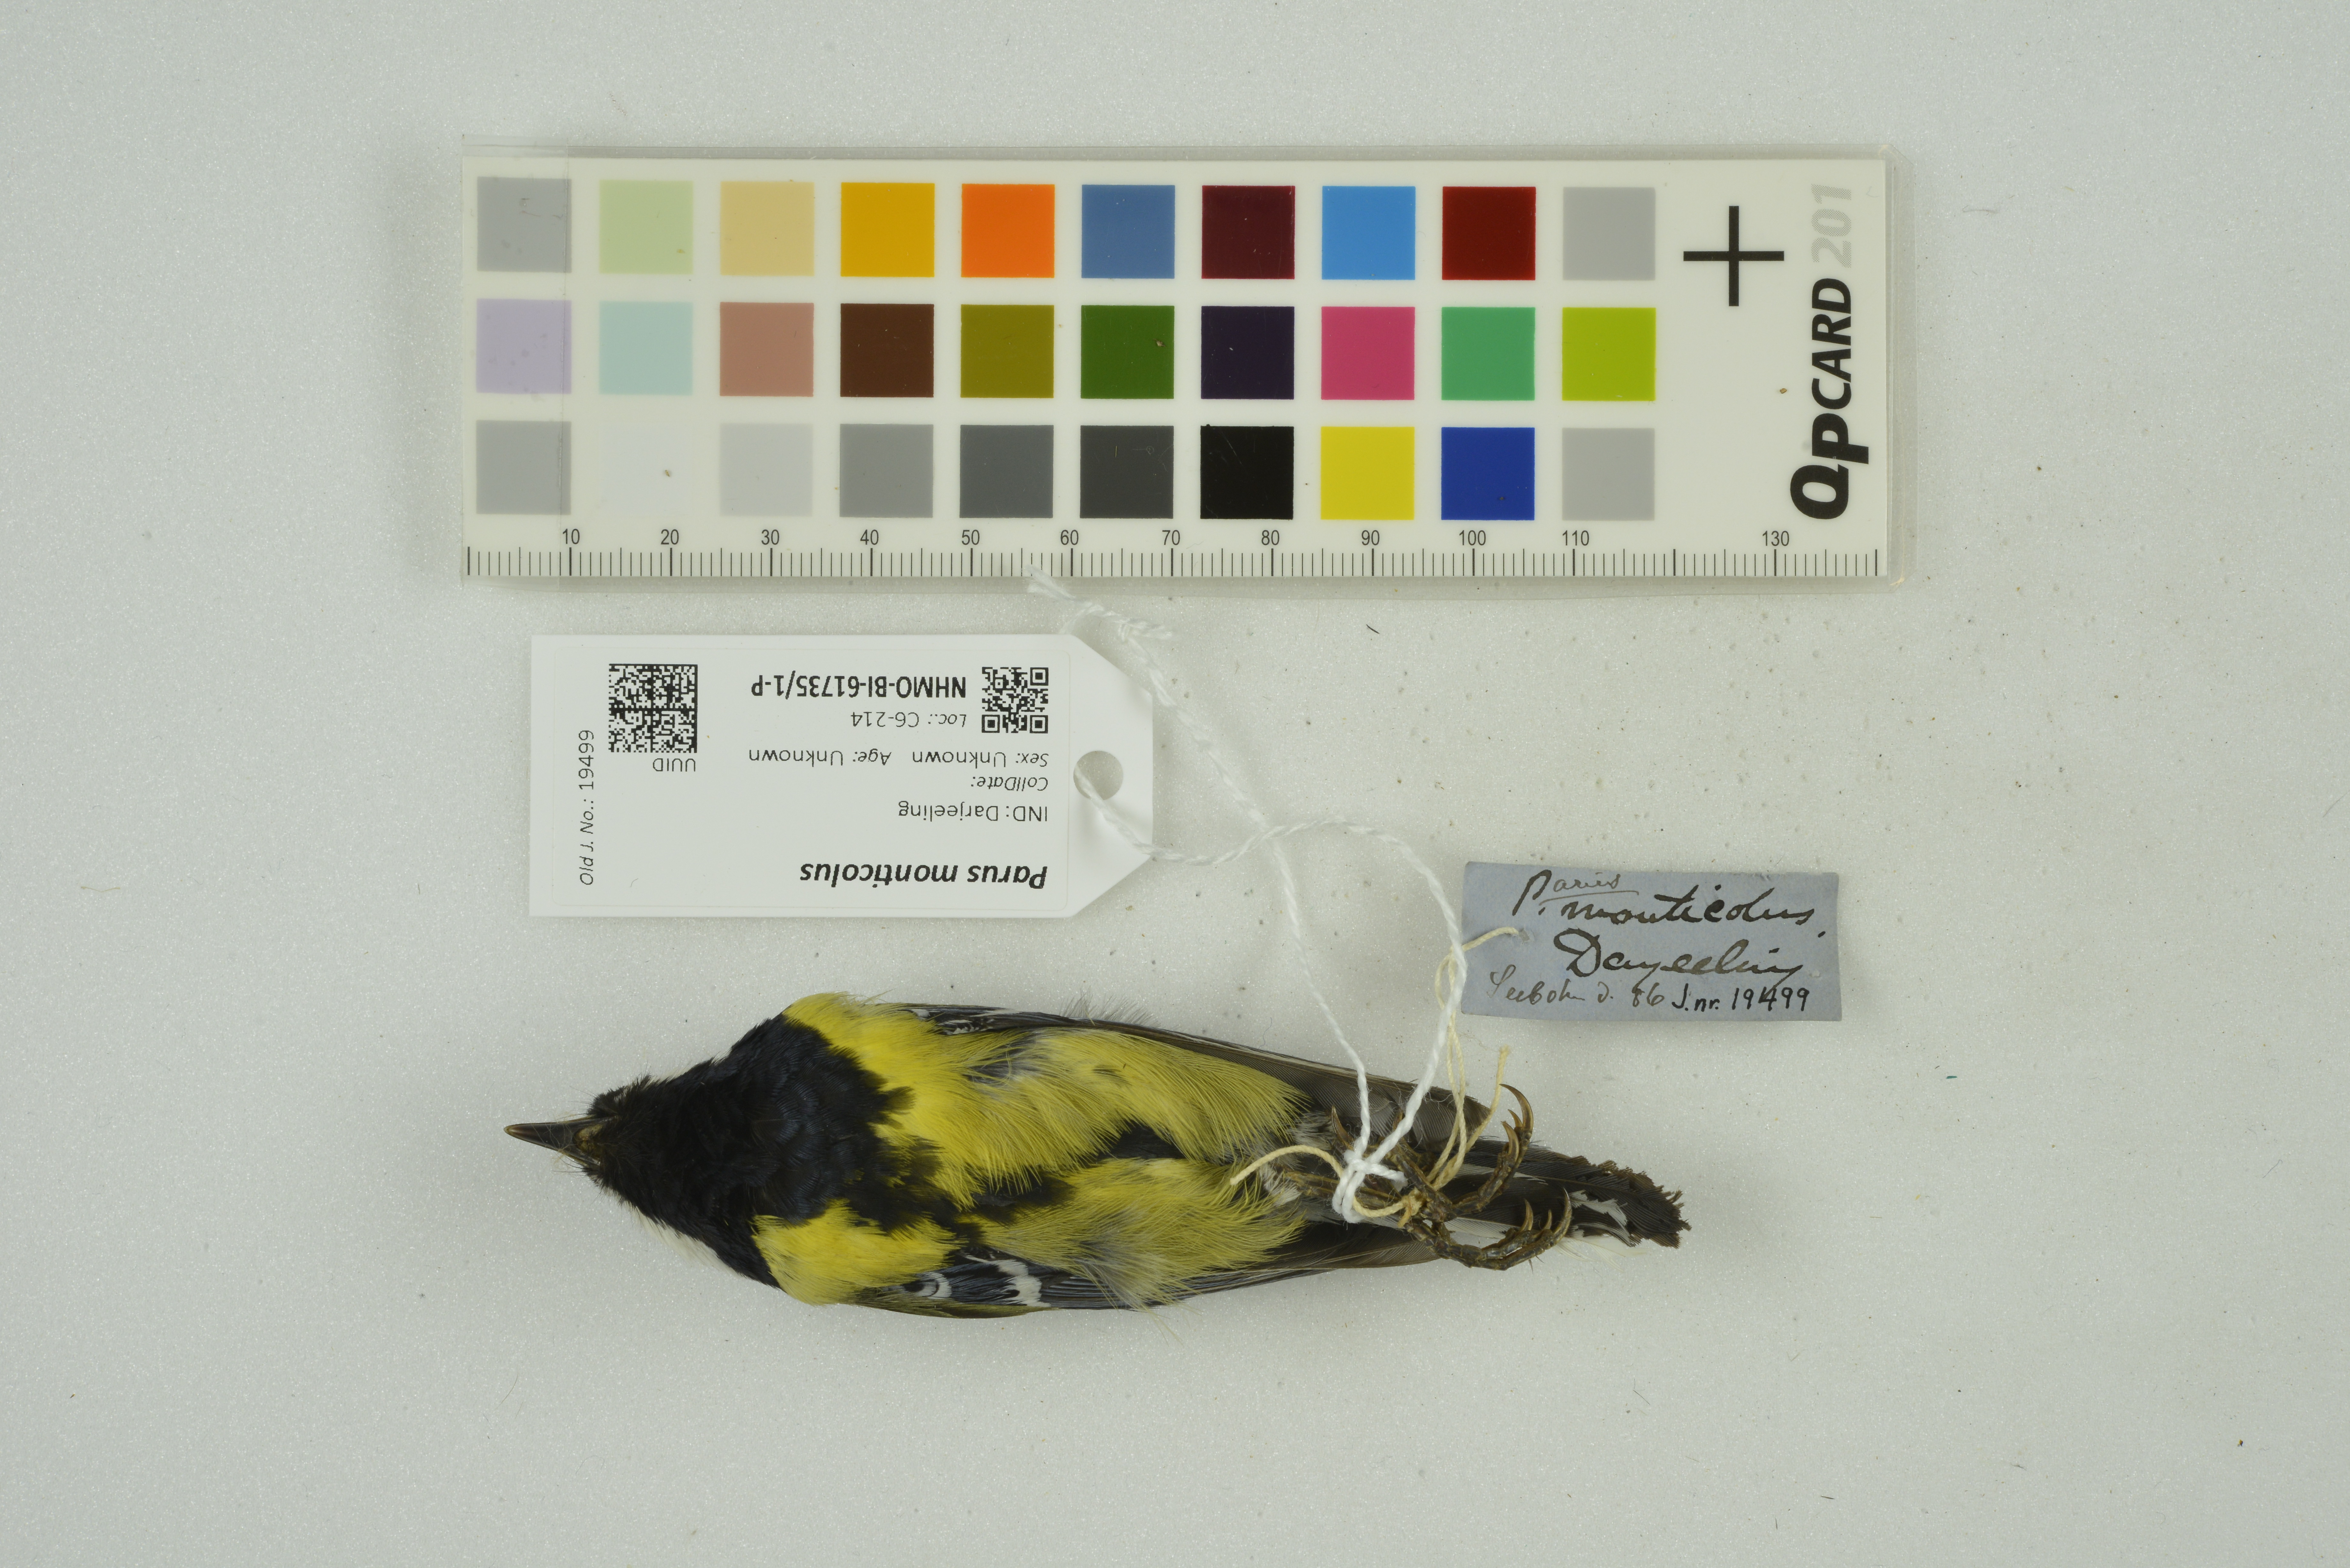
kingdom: Animalia
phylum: Chordata
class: Aves
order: Passeriformes
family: Paridae
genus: Parus
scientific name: Parus monticolus
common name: Green-backed tit
